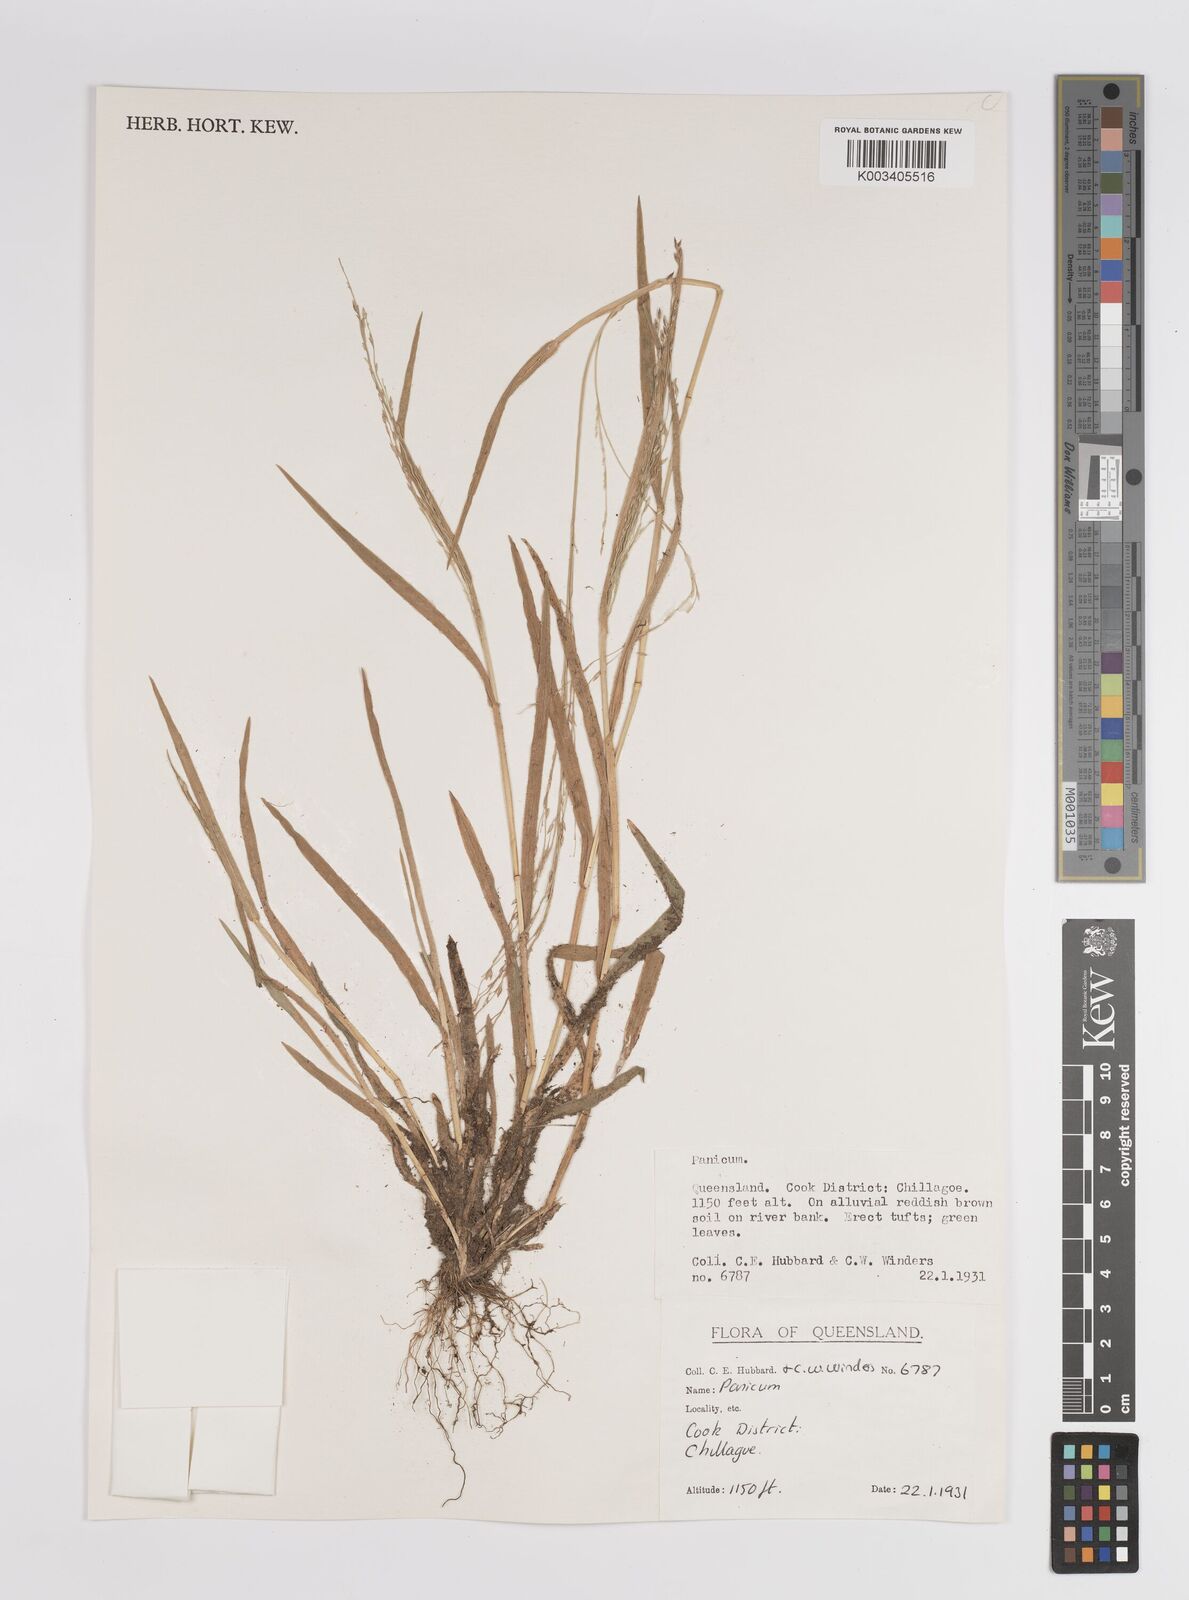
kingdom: Plantae
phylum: Tracheophyta
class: Liliopsida
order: Poales
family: Poaceae
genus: Panicum
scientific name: Panicum
